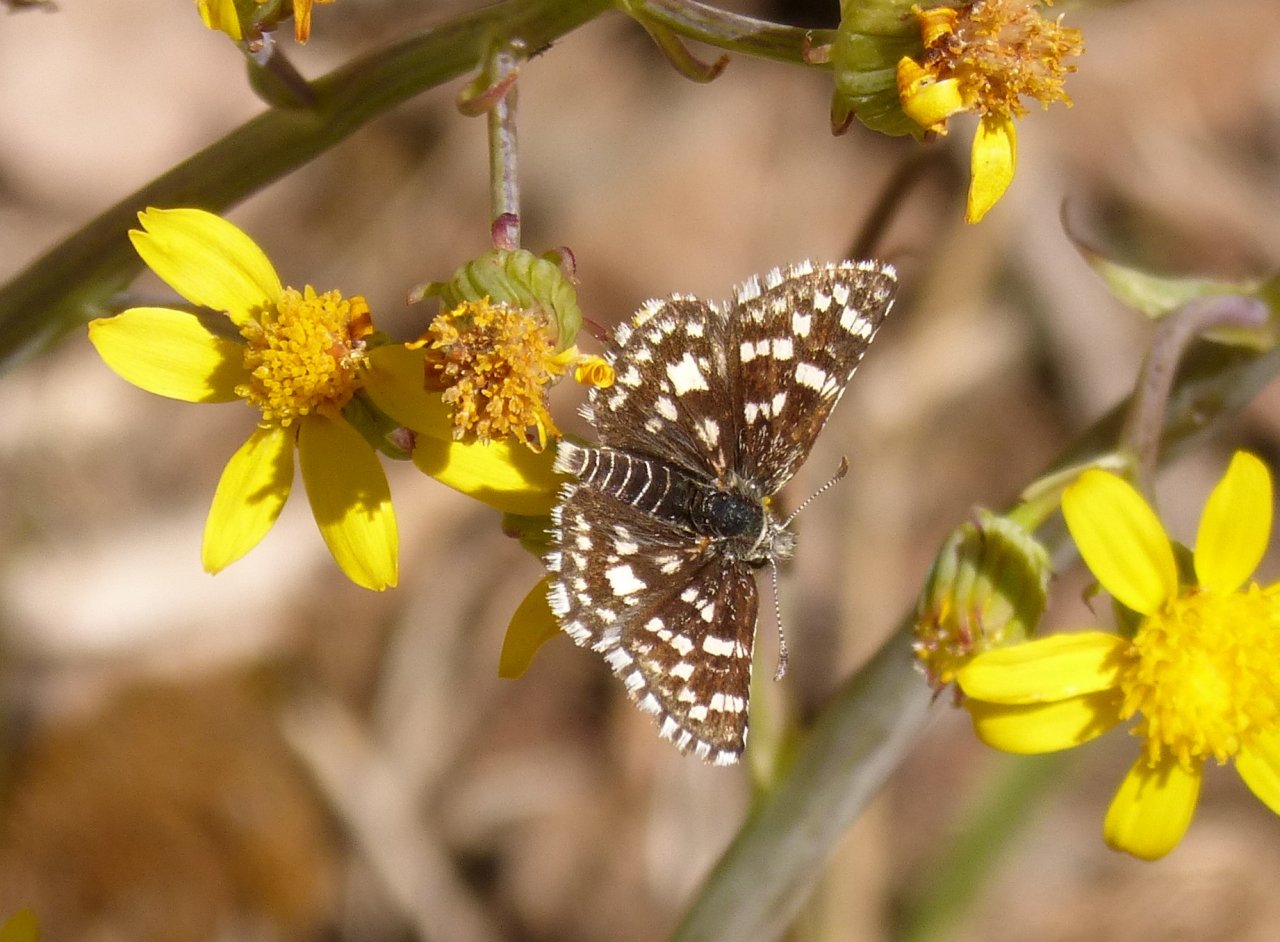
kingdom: Animalia
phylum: Arthropoda
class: Insecta
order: Lepidoptera
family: Hesperiidae
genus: Pyrgus
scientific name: Pyrgus ruralis
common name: Mountain Checkered-Skipper
